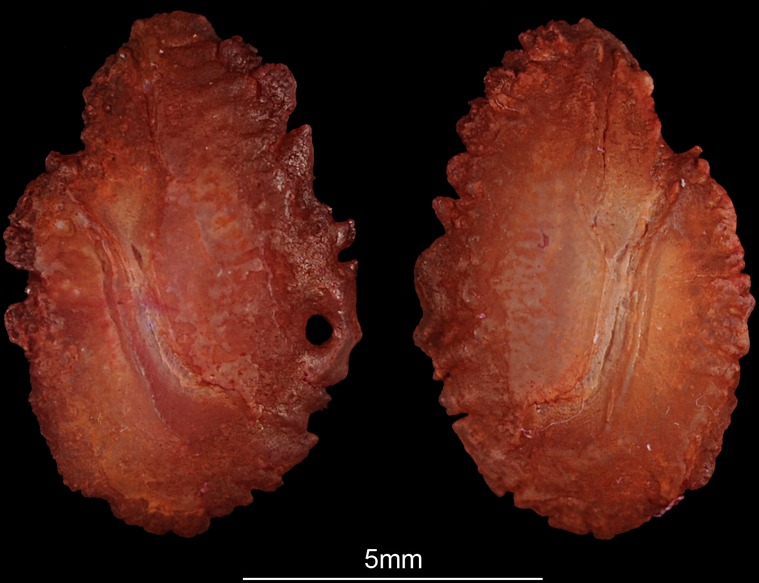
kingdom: Animalia
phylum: Chordata
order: Perciformes
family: Cichlidae
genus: Sarotherodon
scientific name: Sarotherodon galilaeus
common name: Mango tilapia
